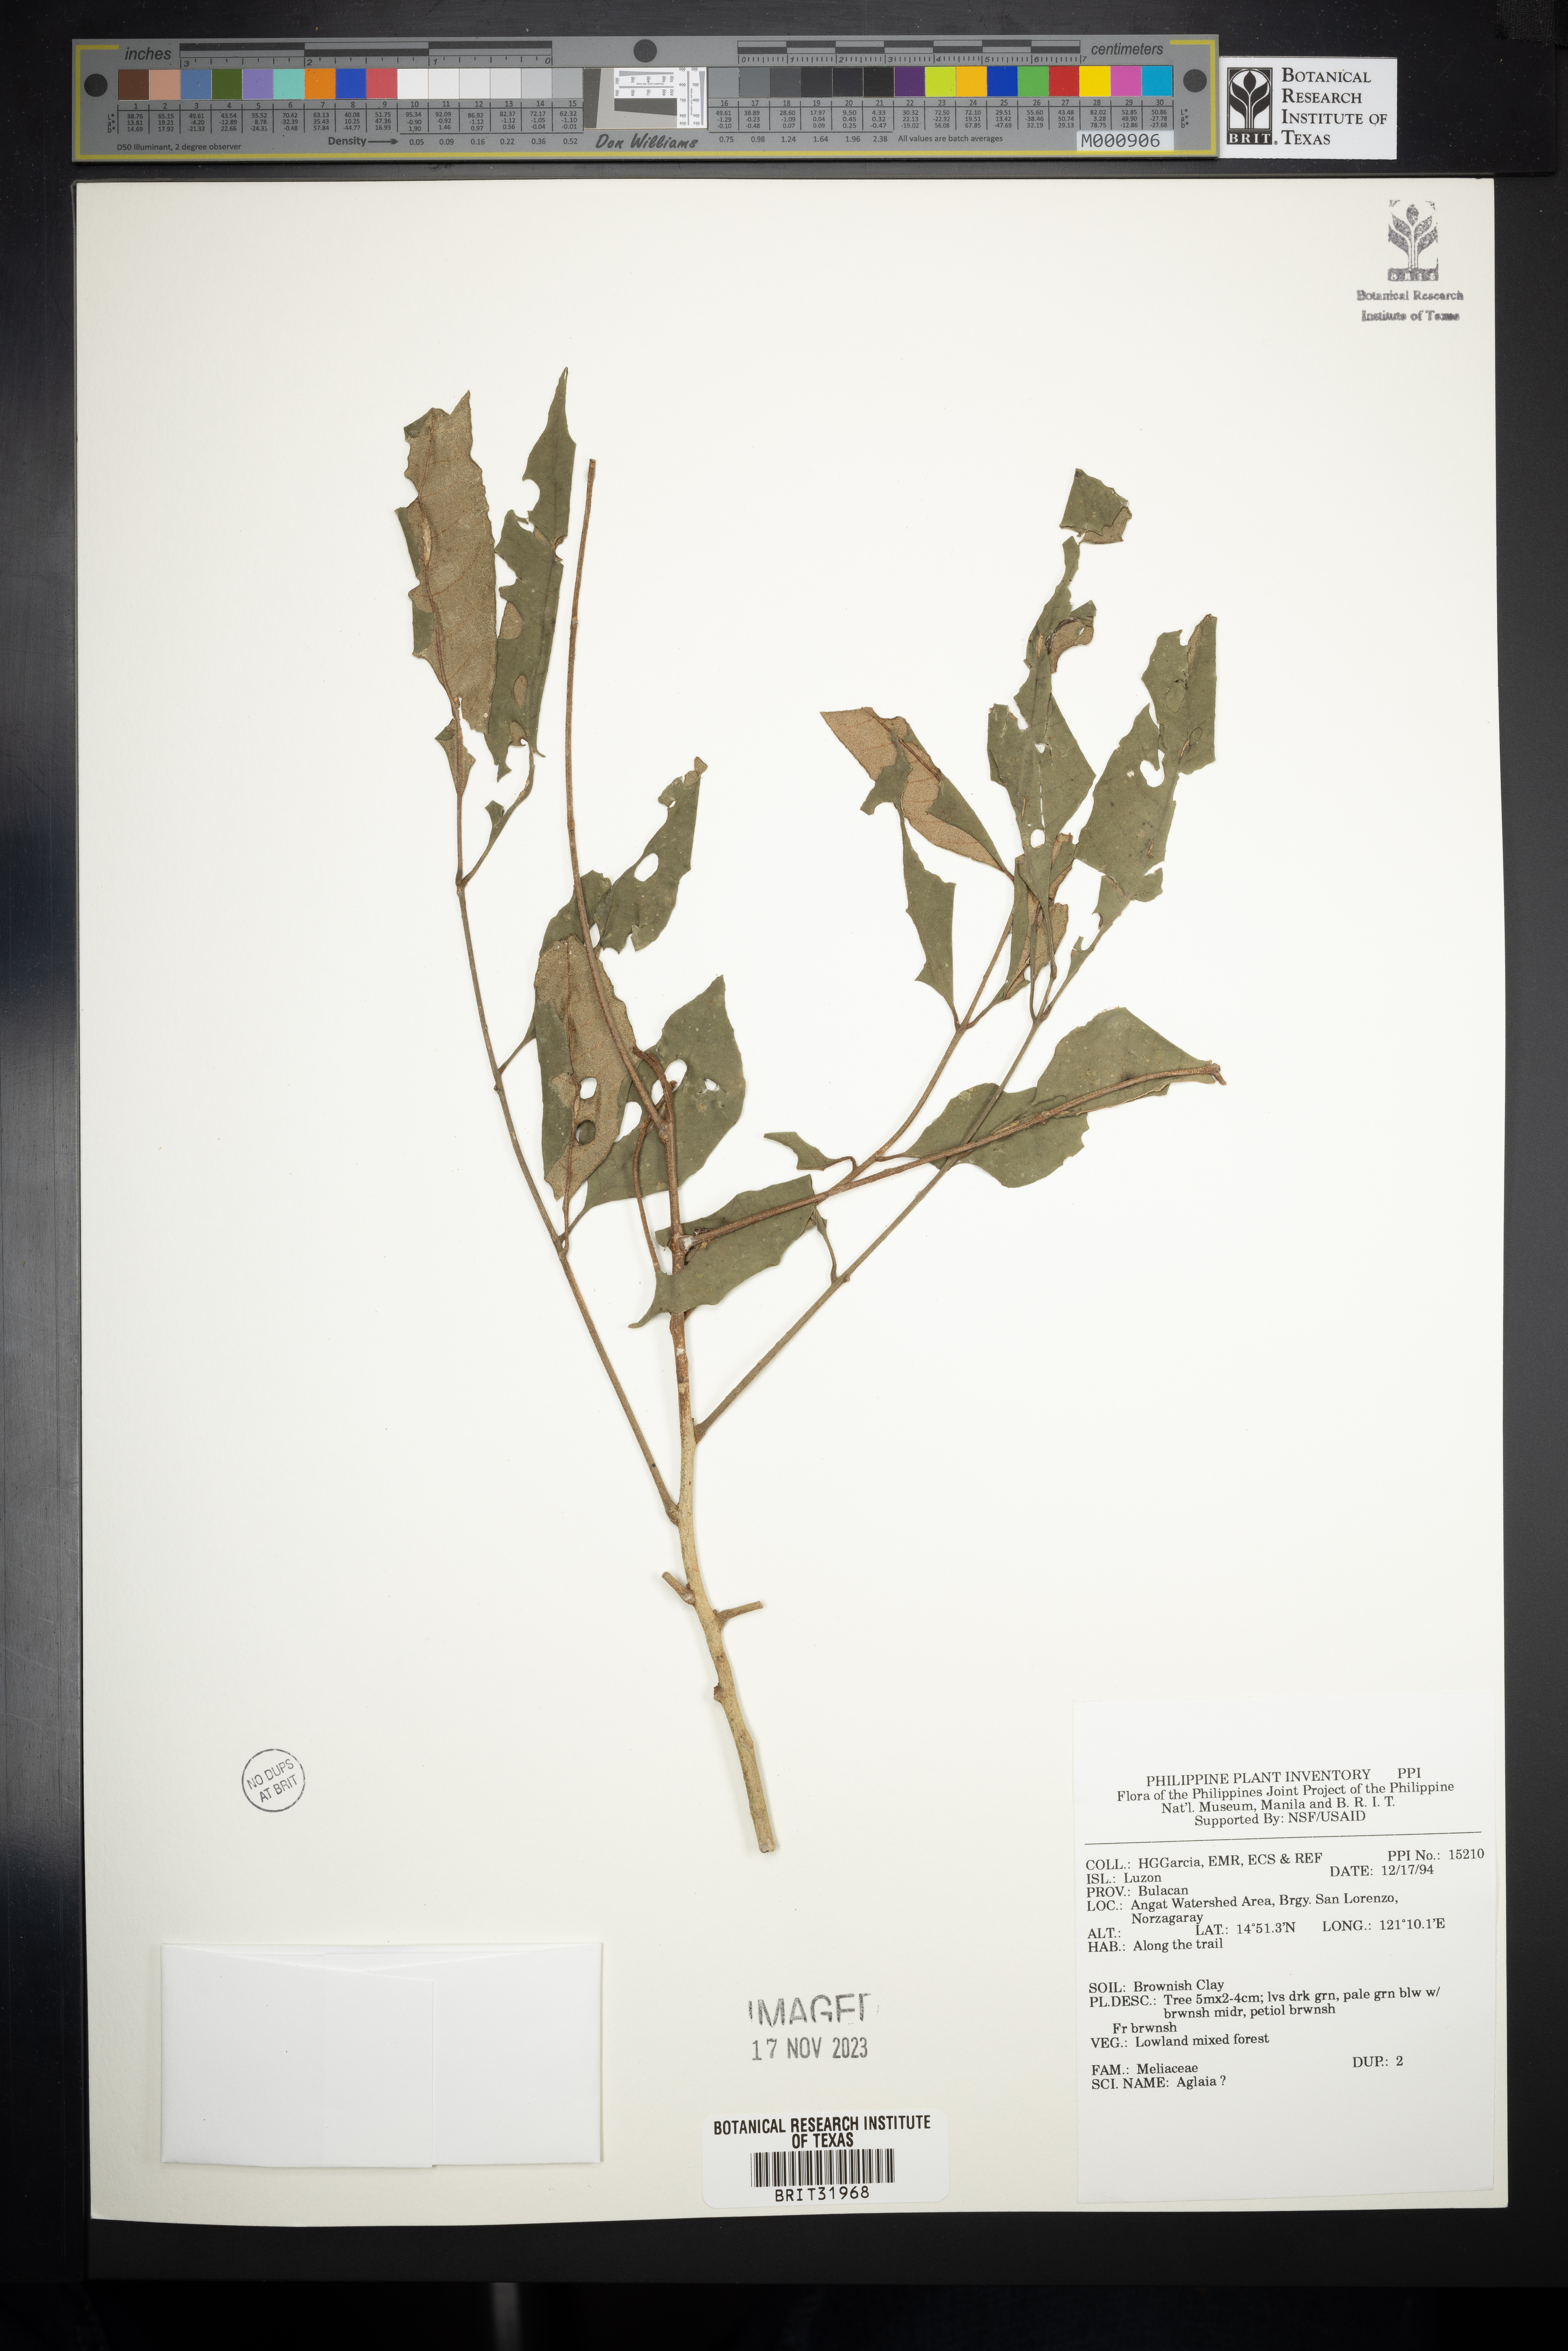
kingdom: Plantae
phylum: Tracheophyta
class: Magnoliopsida
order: Sapindales
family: Meliaceae
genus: Aglaia
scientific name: Aglaia
